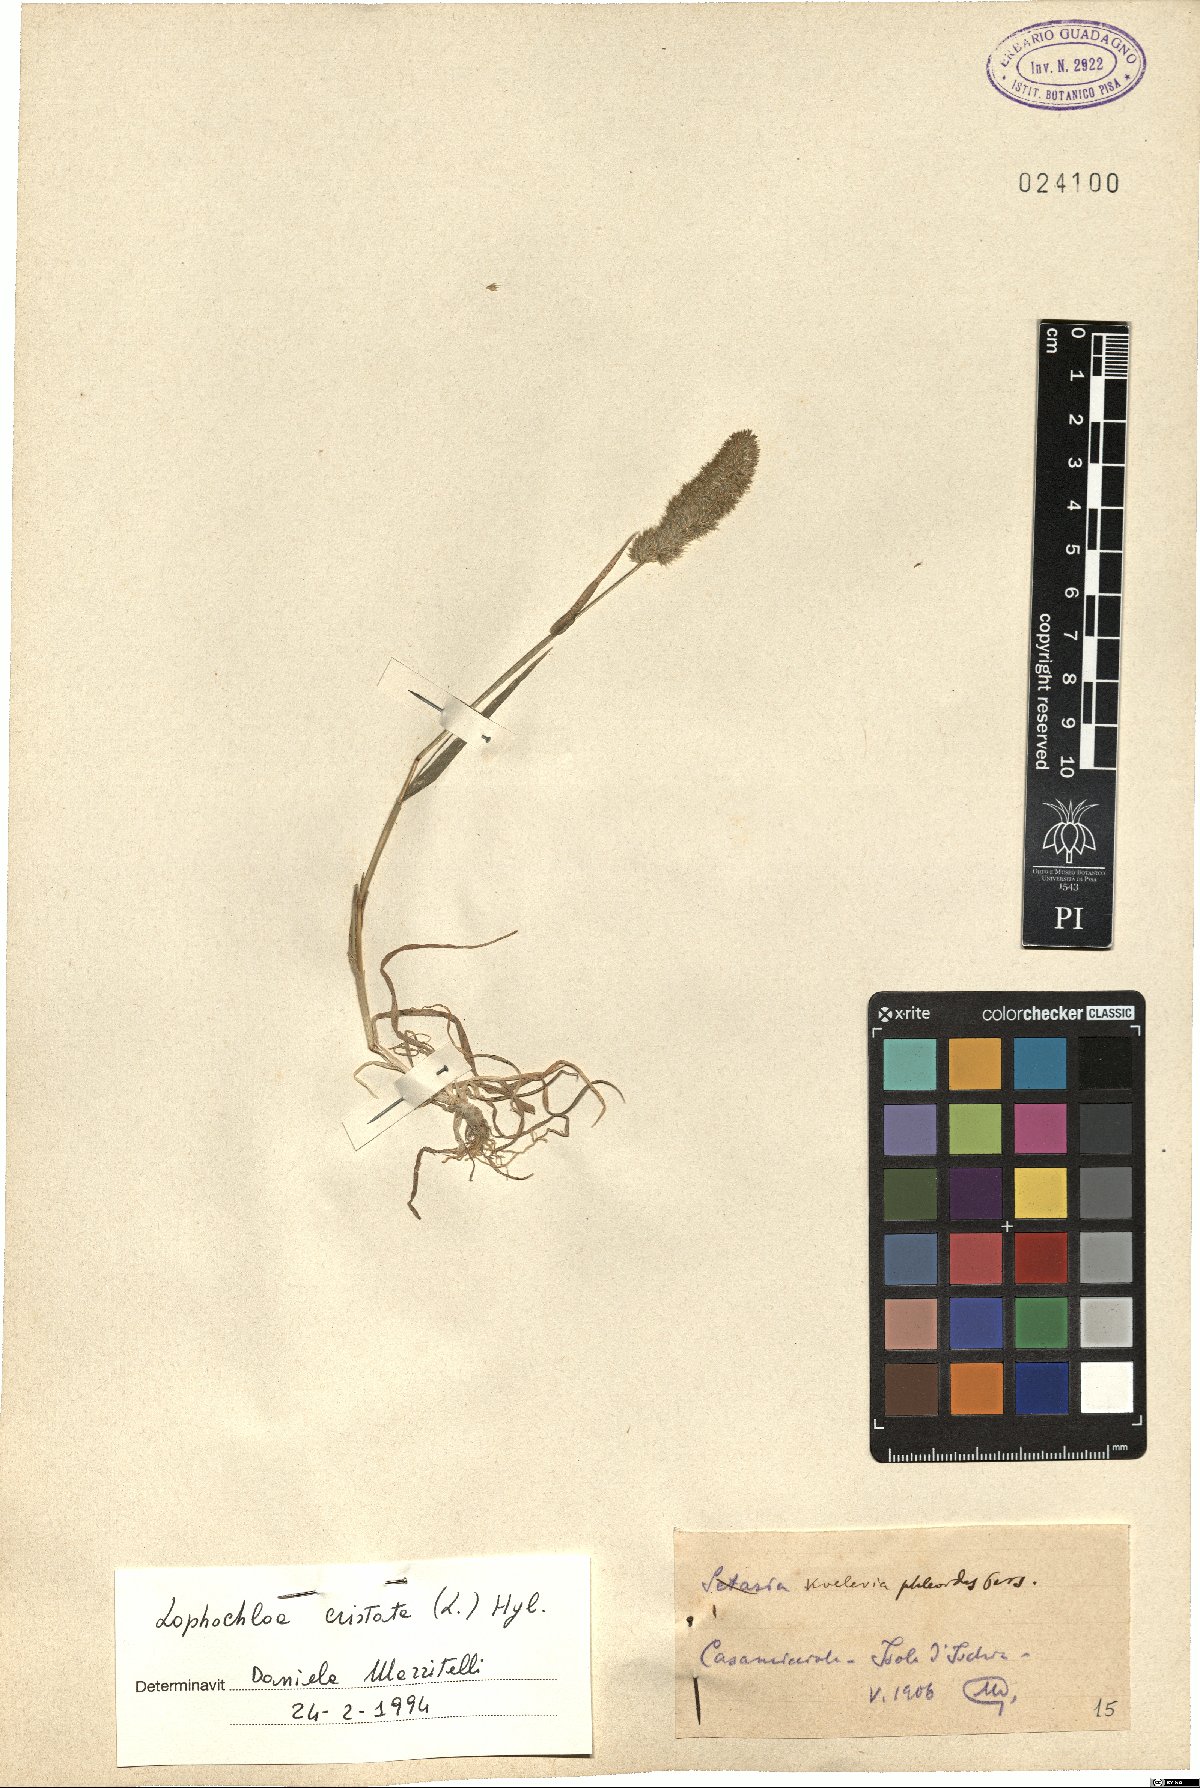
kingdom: Plantae
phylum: Tracheophyta
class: Liliopsida
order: Poales
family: Poaceae
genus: Rostraria
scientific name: Rostraria cristata
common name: Mediterranean hair-grass
